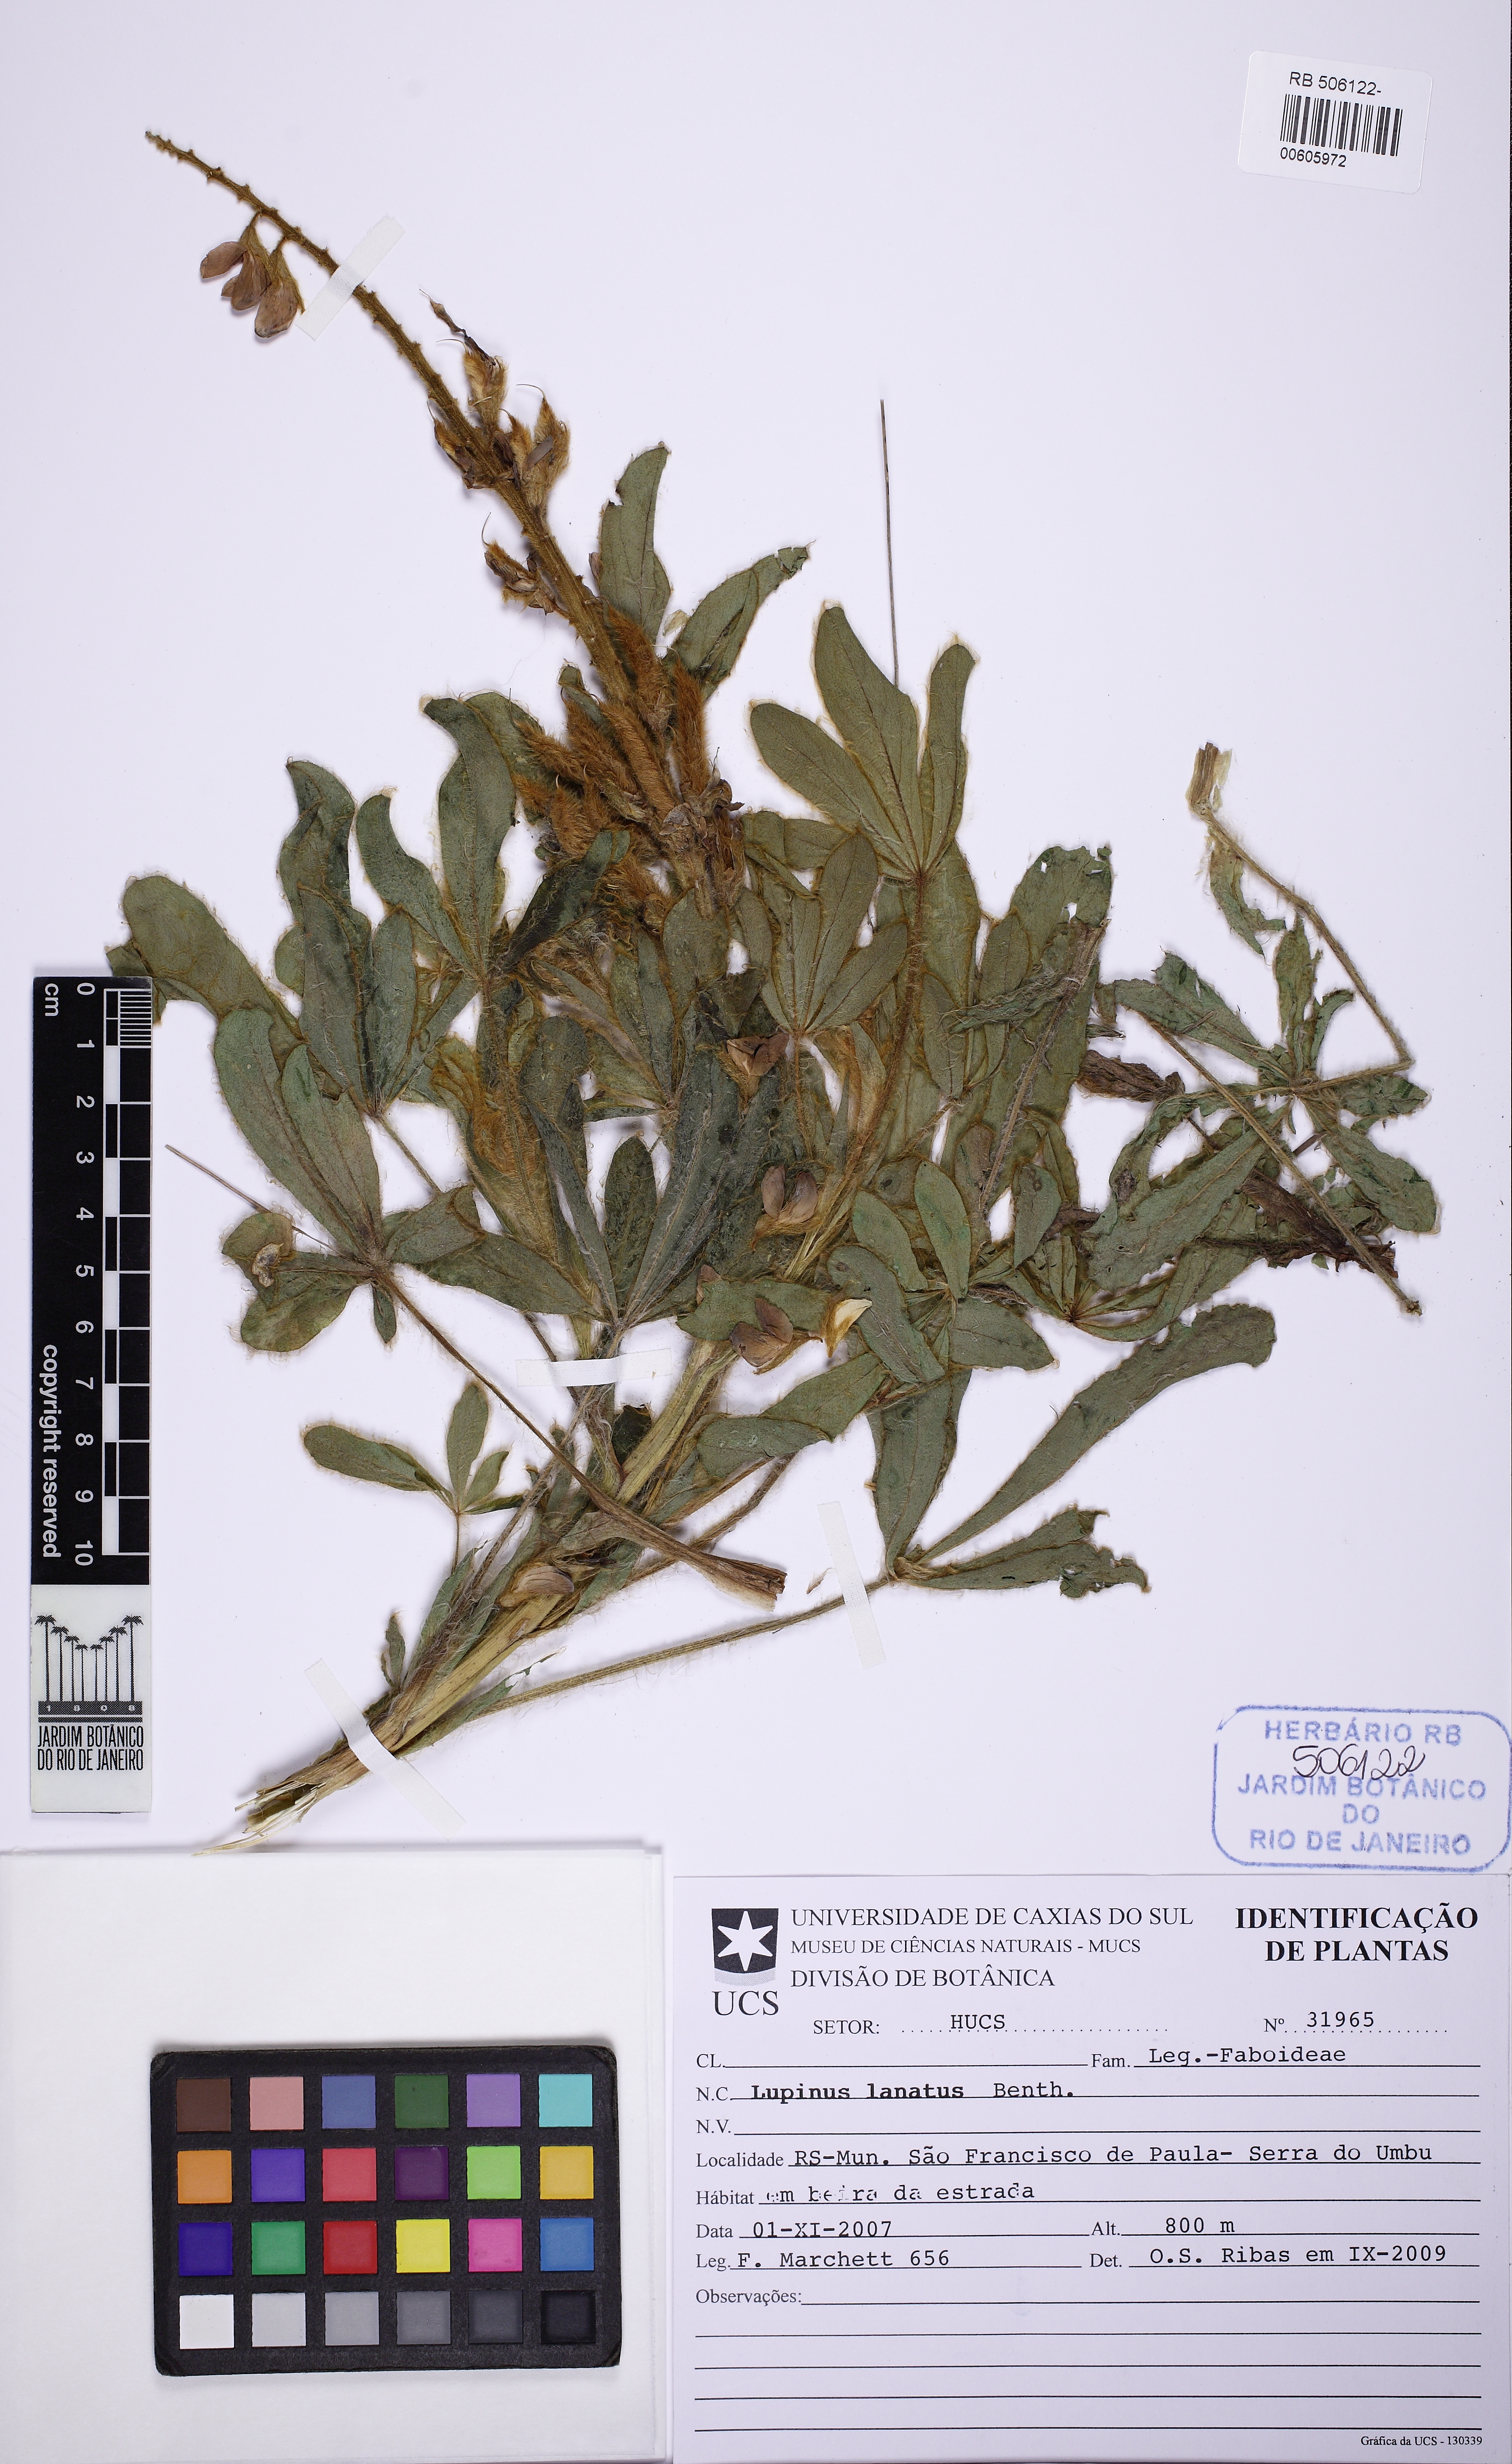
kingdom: Plantae
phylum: Tracheophyta
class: Magnoliopsida
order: Fabales
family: Fabaceae
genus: Lupinus
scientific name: Lupinus lanatus
